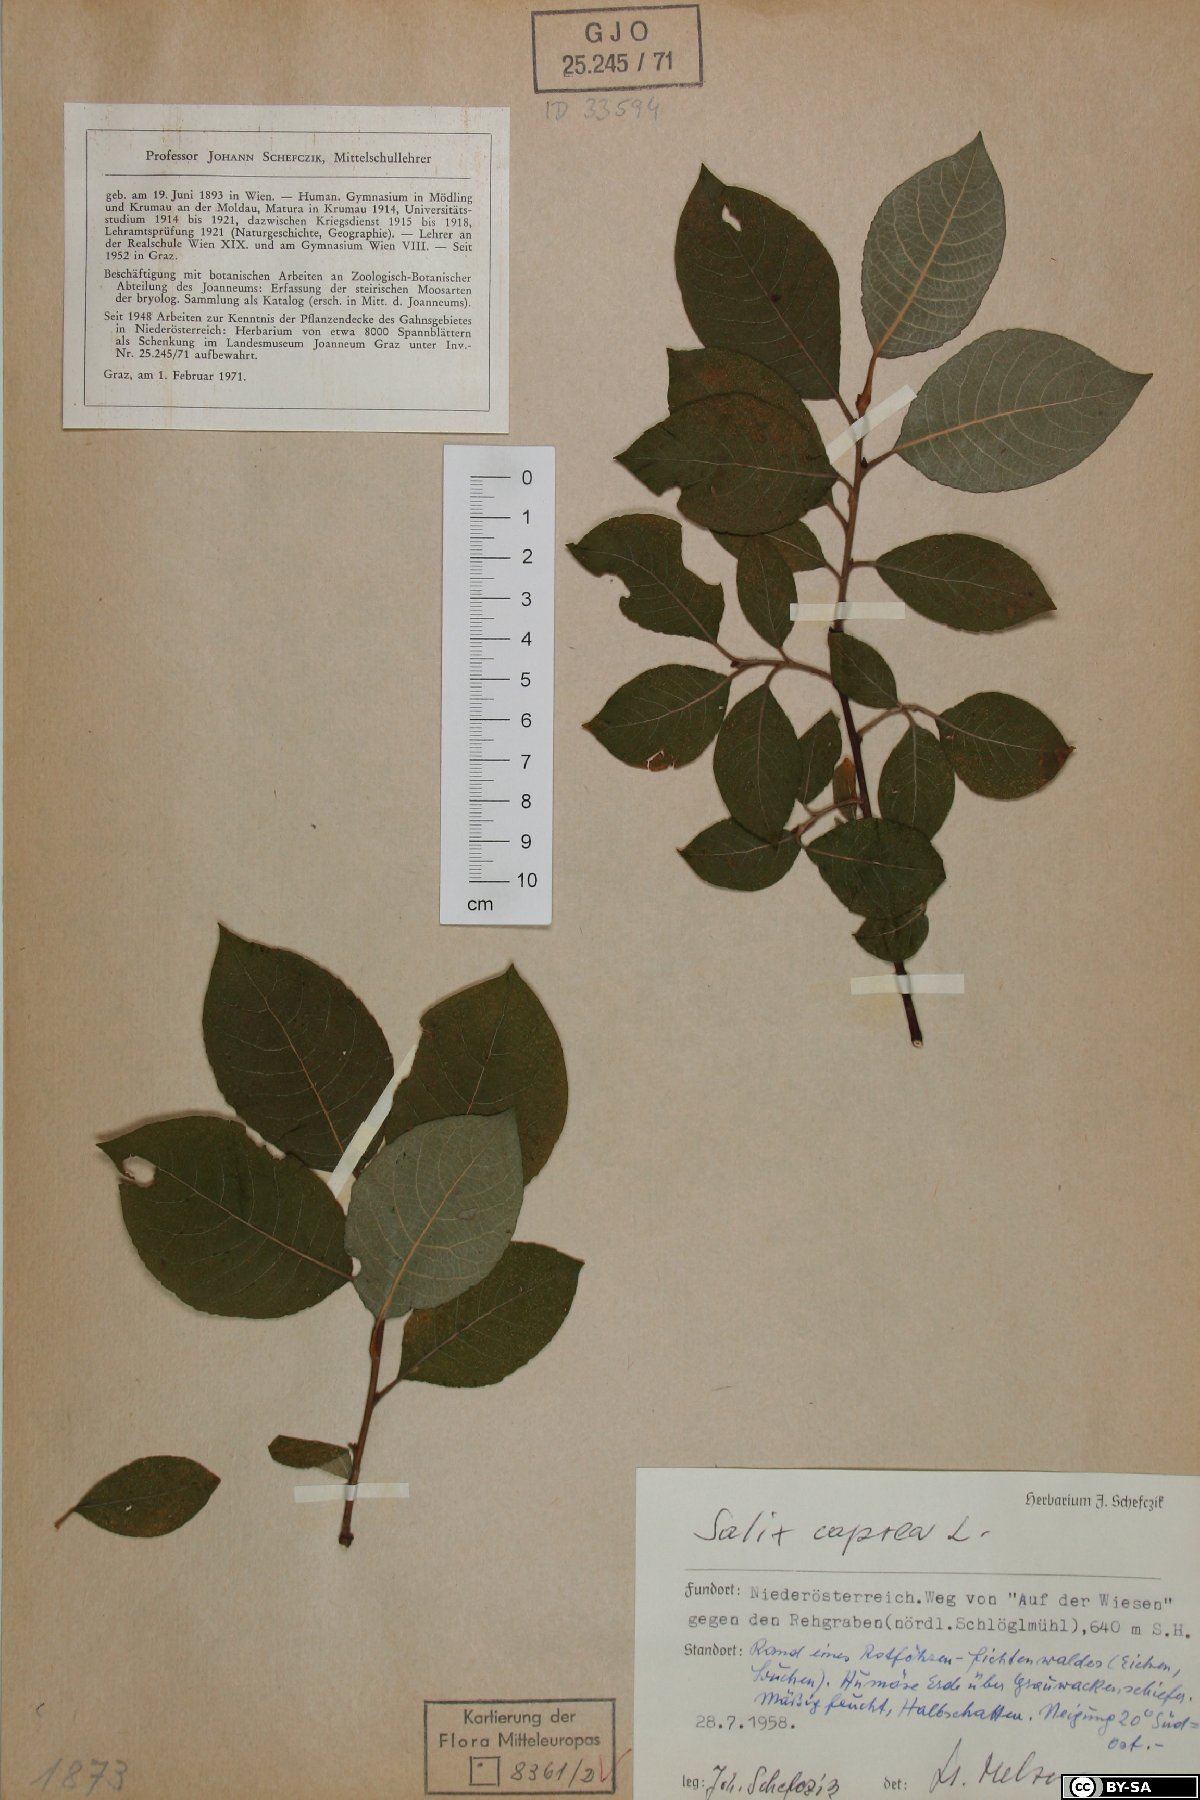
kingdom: Plantae
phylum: Tracheophyta
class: Magnoliopsida
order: Malpighiales
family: Salicaceae
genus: Salix
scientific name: Salix caprea
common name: Goat willow
